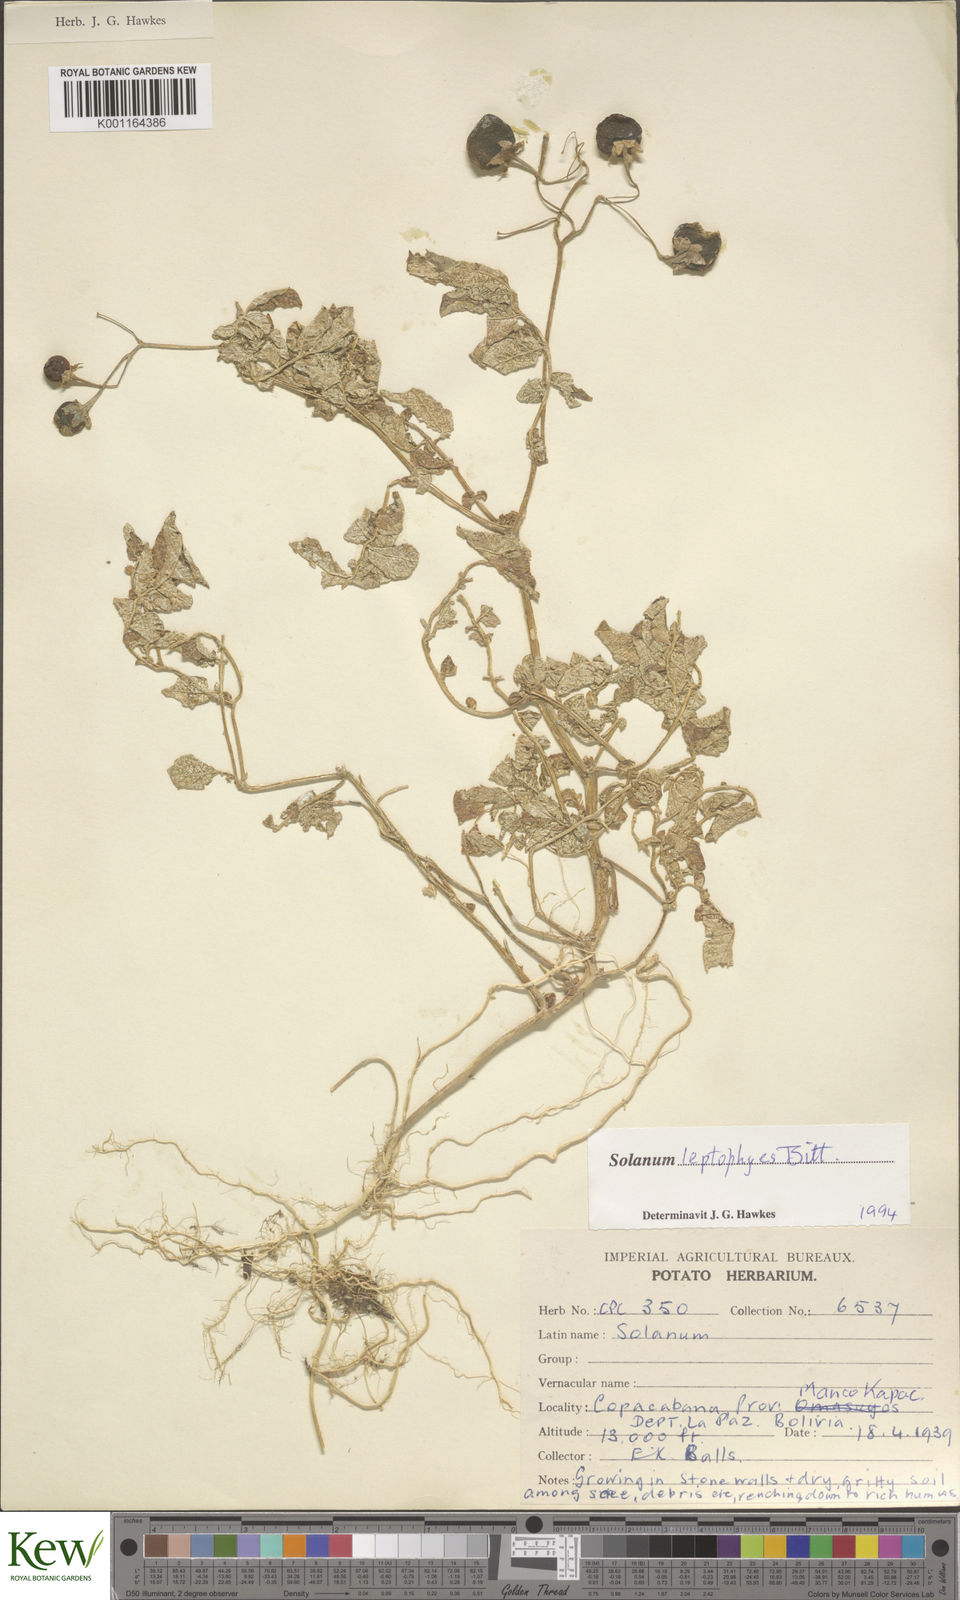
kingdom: Plantae
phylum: Tracheophyta
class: Magnoliopsida
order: Solanales
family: Solanaceae
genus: Solanum
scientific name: Solanum brevicaule
